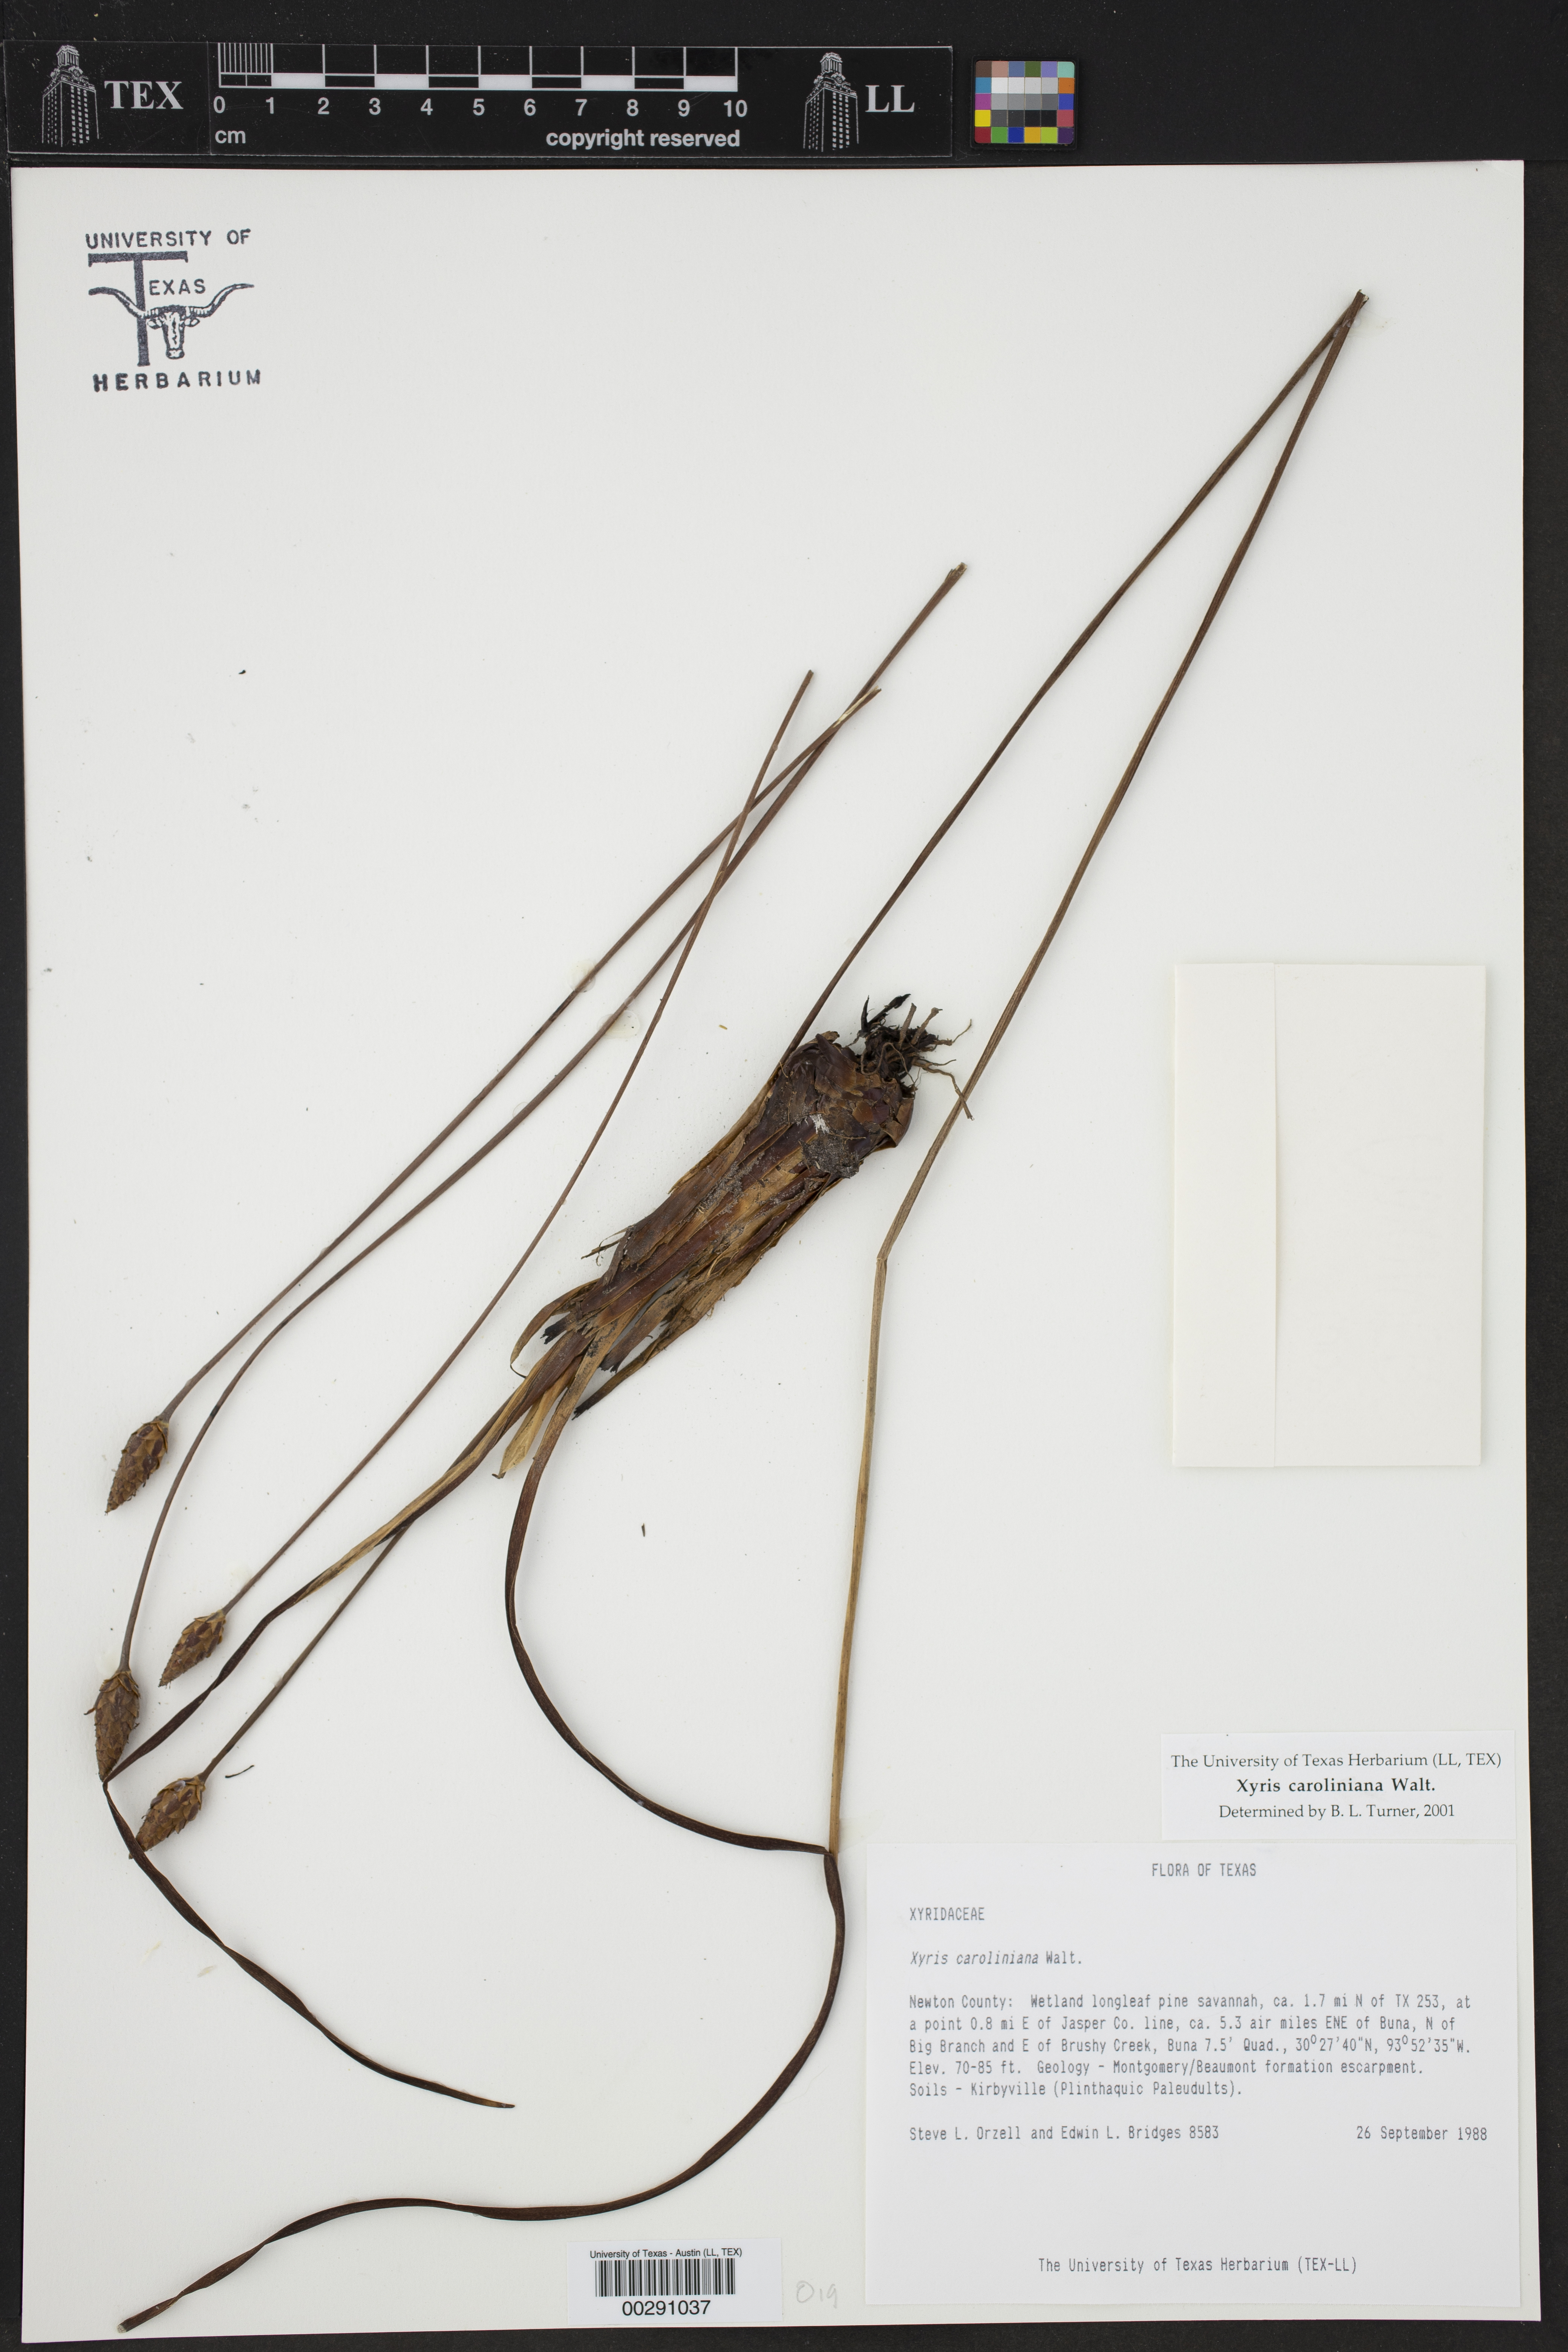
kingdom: Plantae
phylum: Tracheophyta
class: Liliopsida
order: Poales
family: Xyridaceae
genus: Xyris
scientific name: Xyris caroliniana
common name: Carolina yellow-eyed-grass
